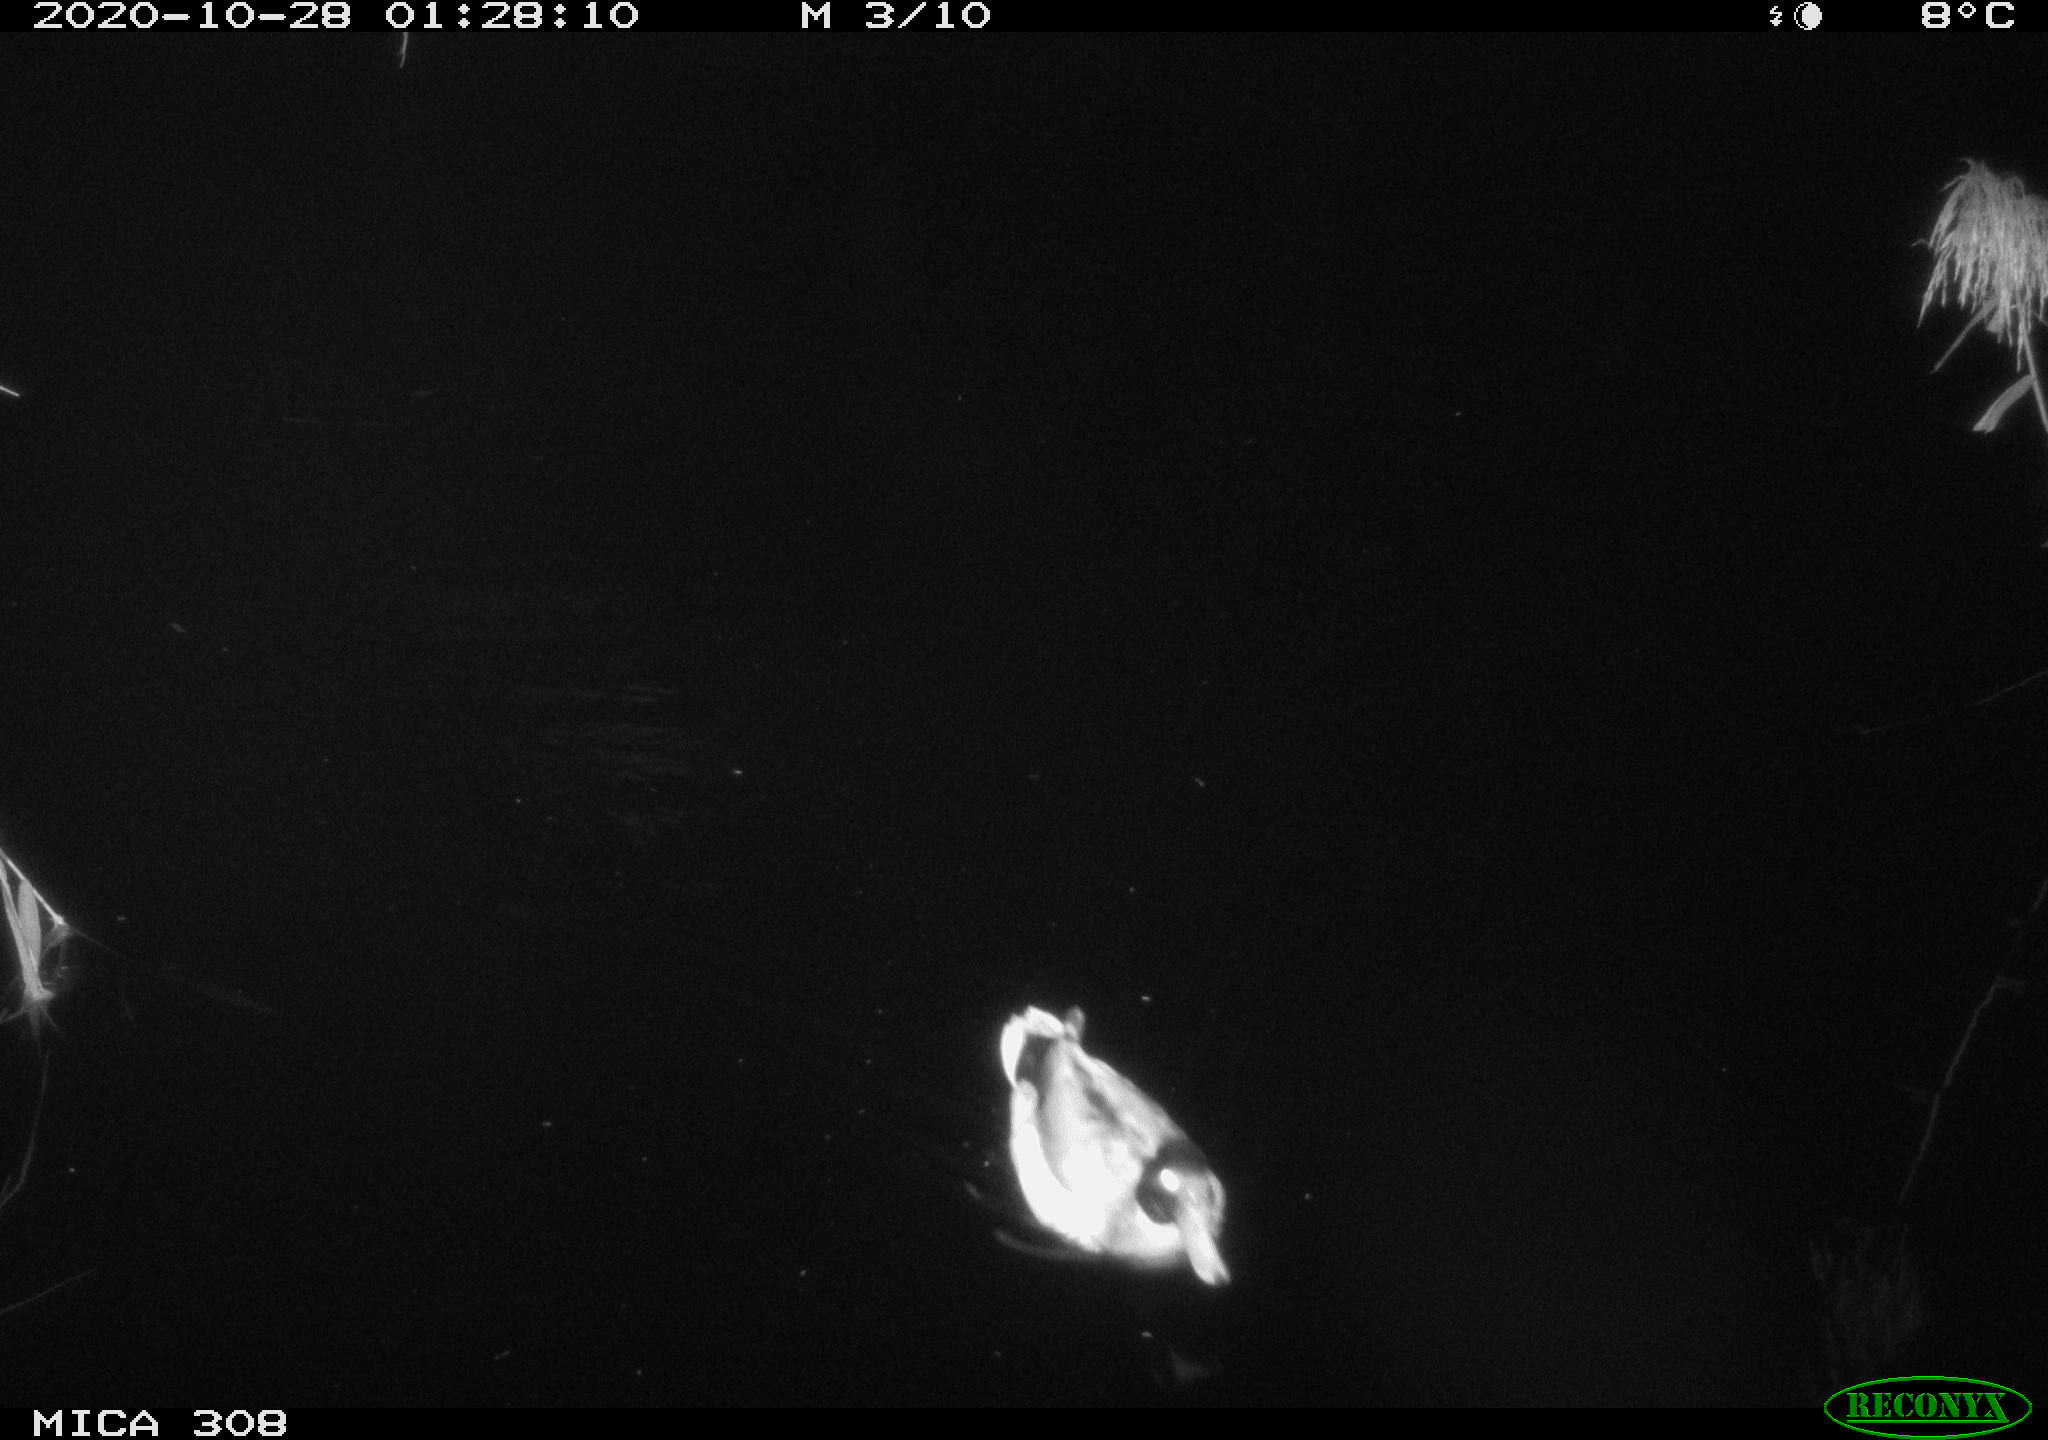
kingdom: Animalia
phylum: Chordata
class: Aves
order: Anseriformes
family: Anatidae
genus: Anas
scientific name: Anas platyrhynchos
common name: Mallard
